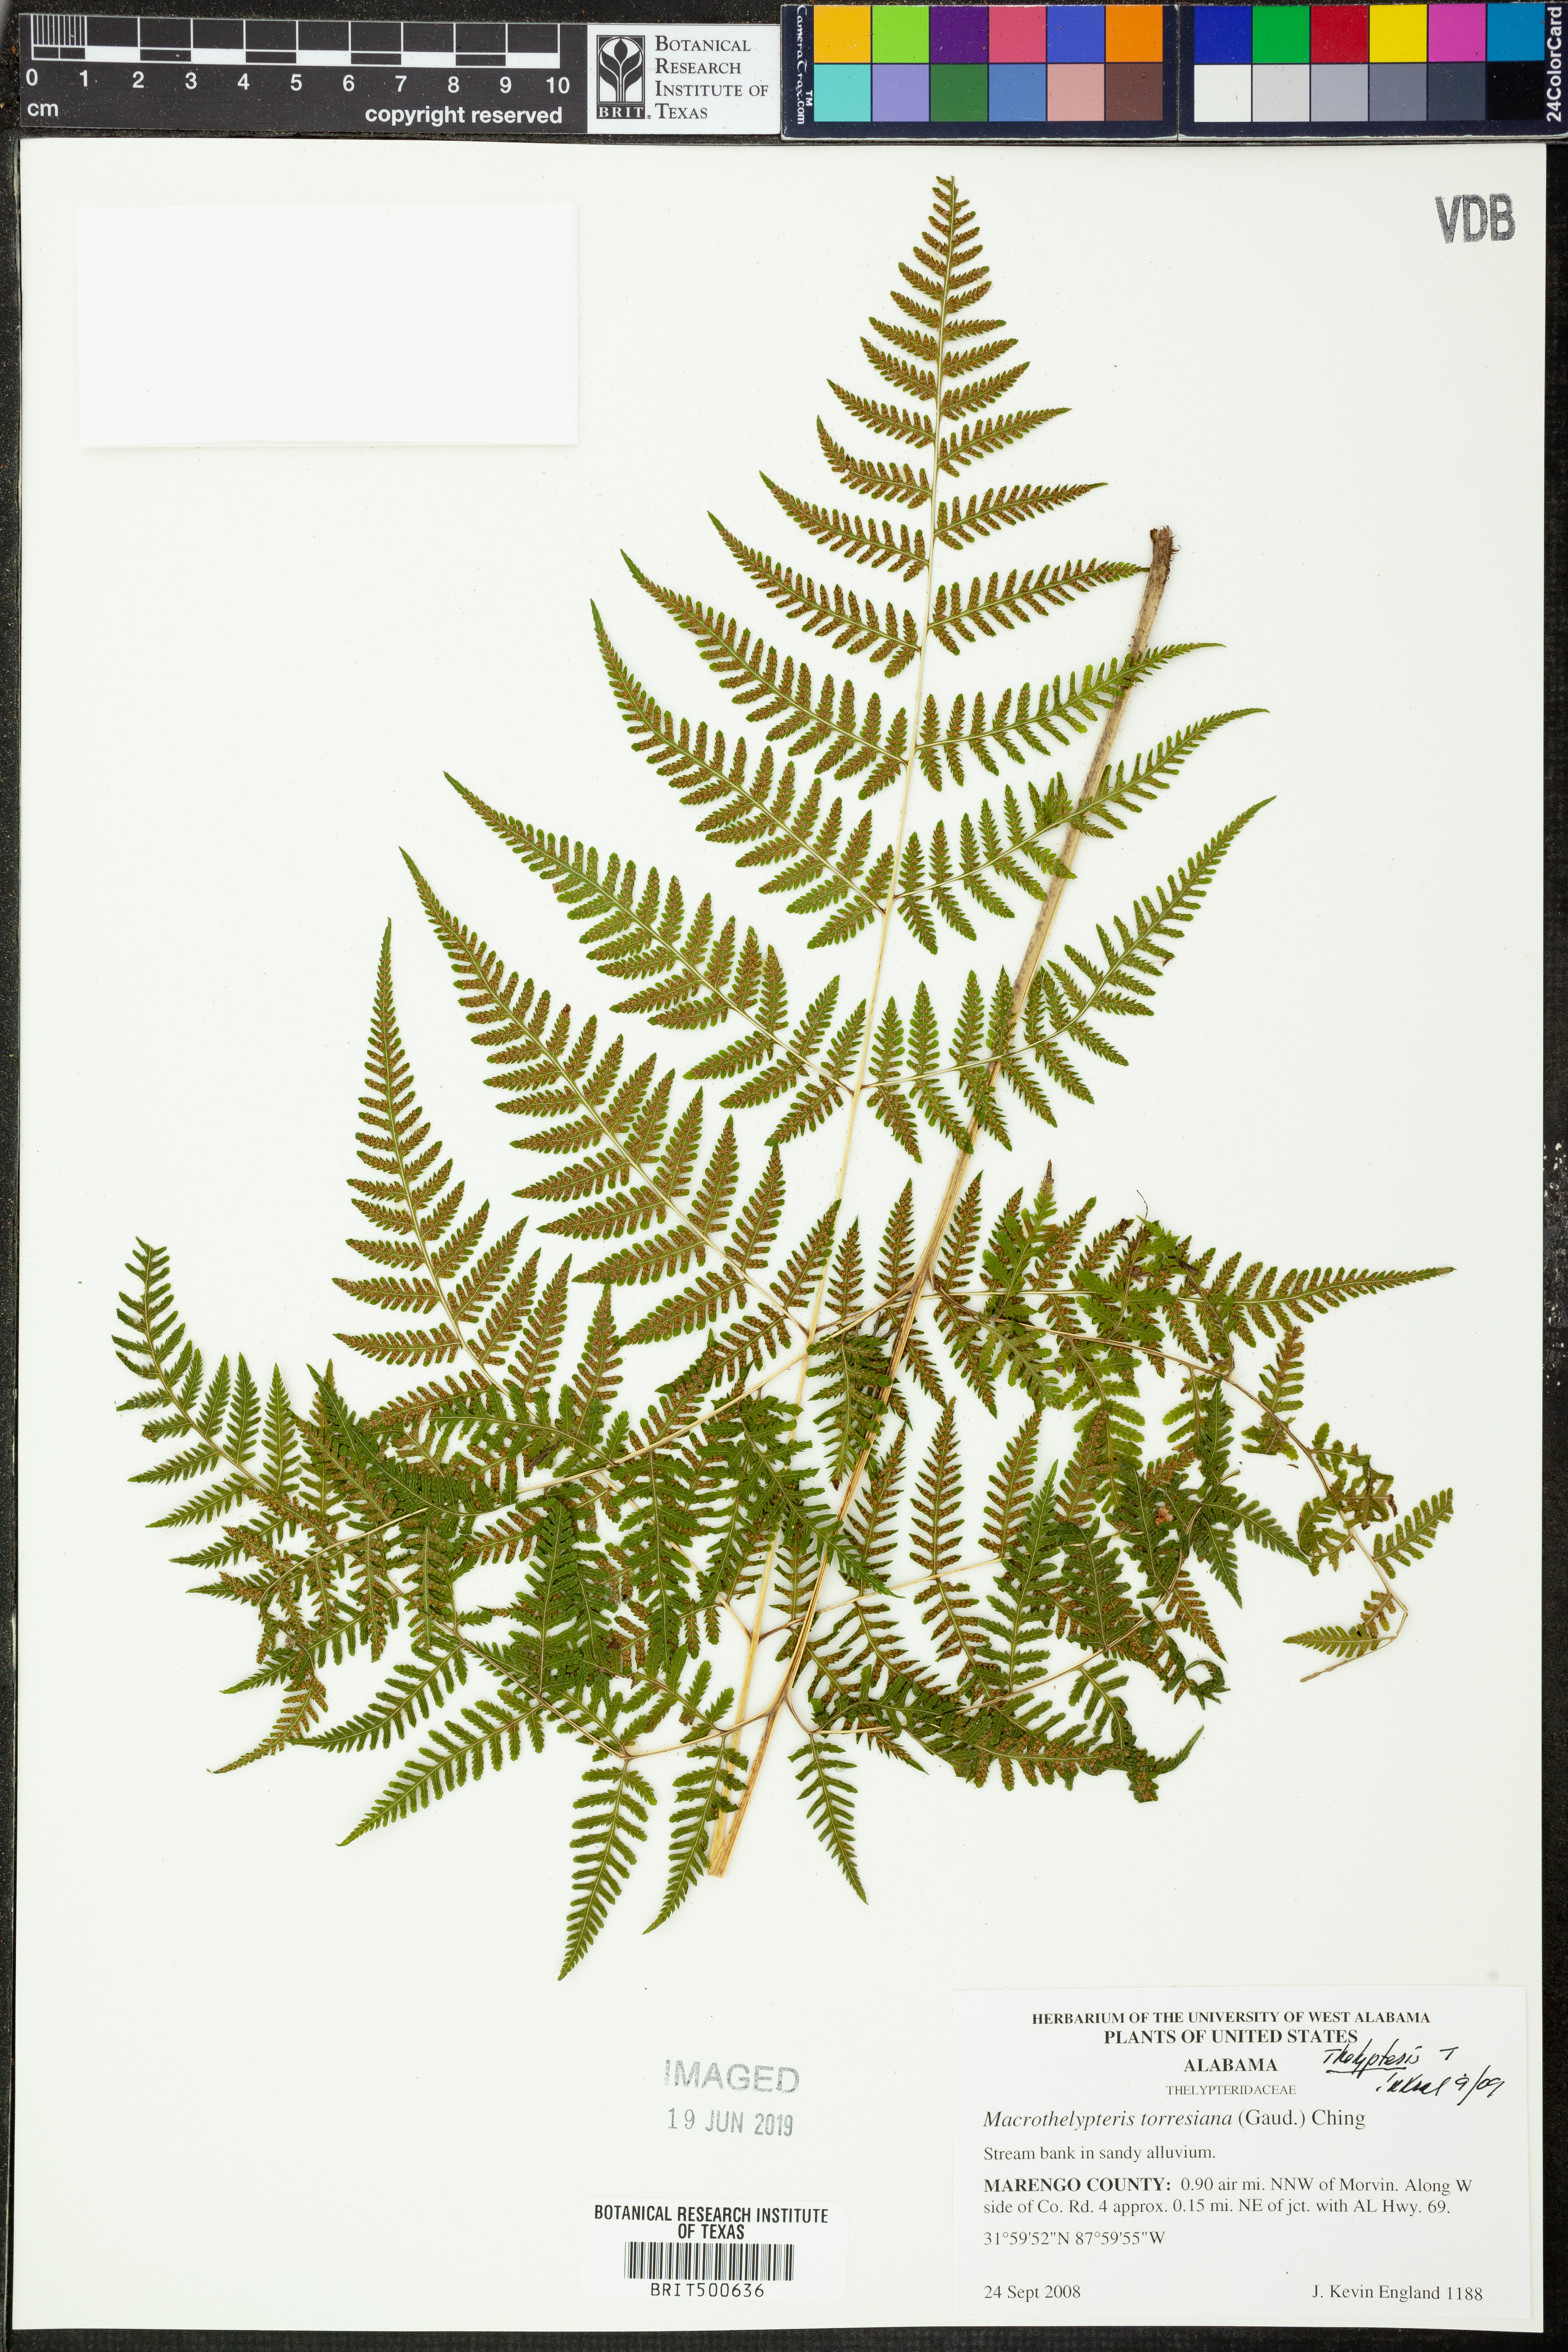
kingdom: Plantae
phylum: Tracheophyta
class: Polypodiopsida
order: Polypodiales
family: Thelypteridaceae
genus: Macrothelypteris
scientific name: Macrothelypteris torresiana
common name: Swordfern
